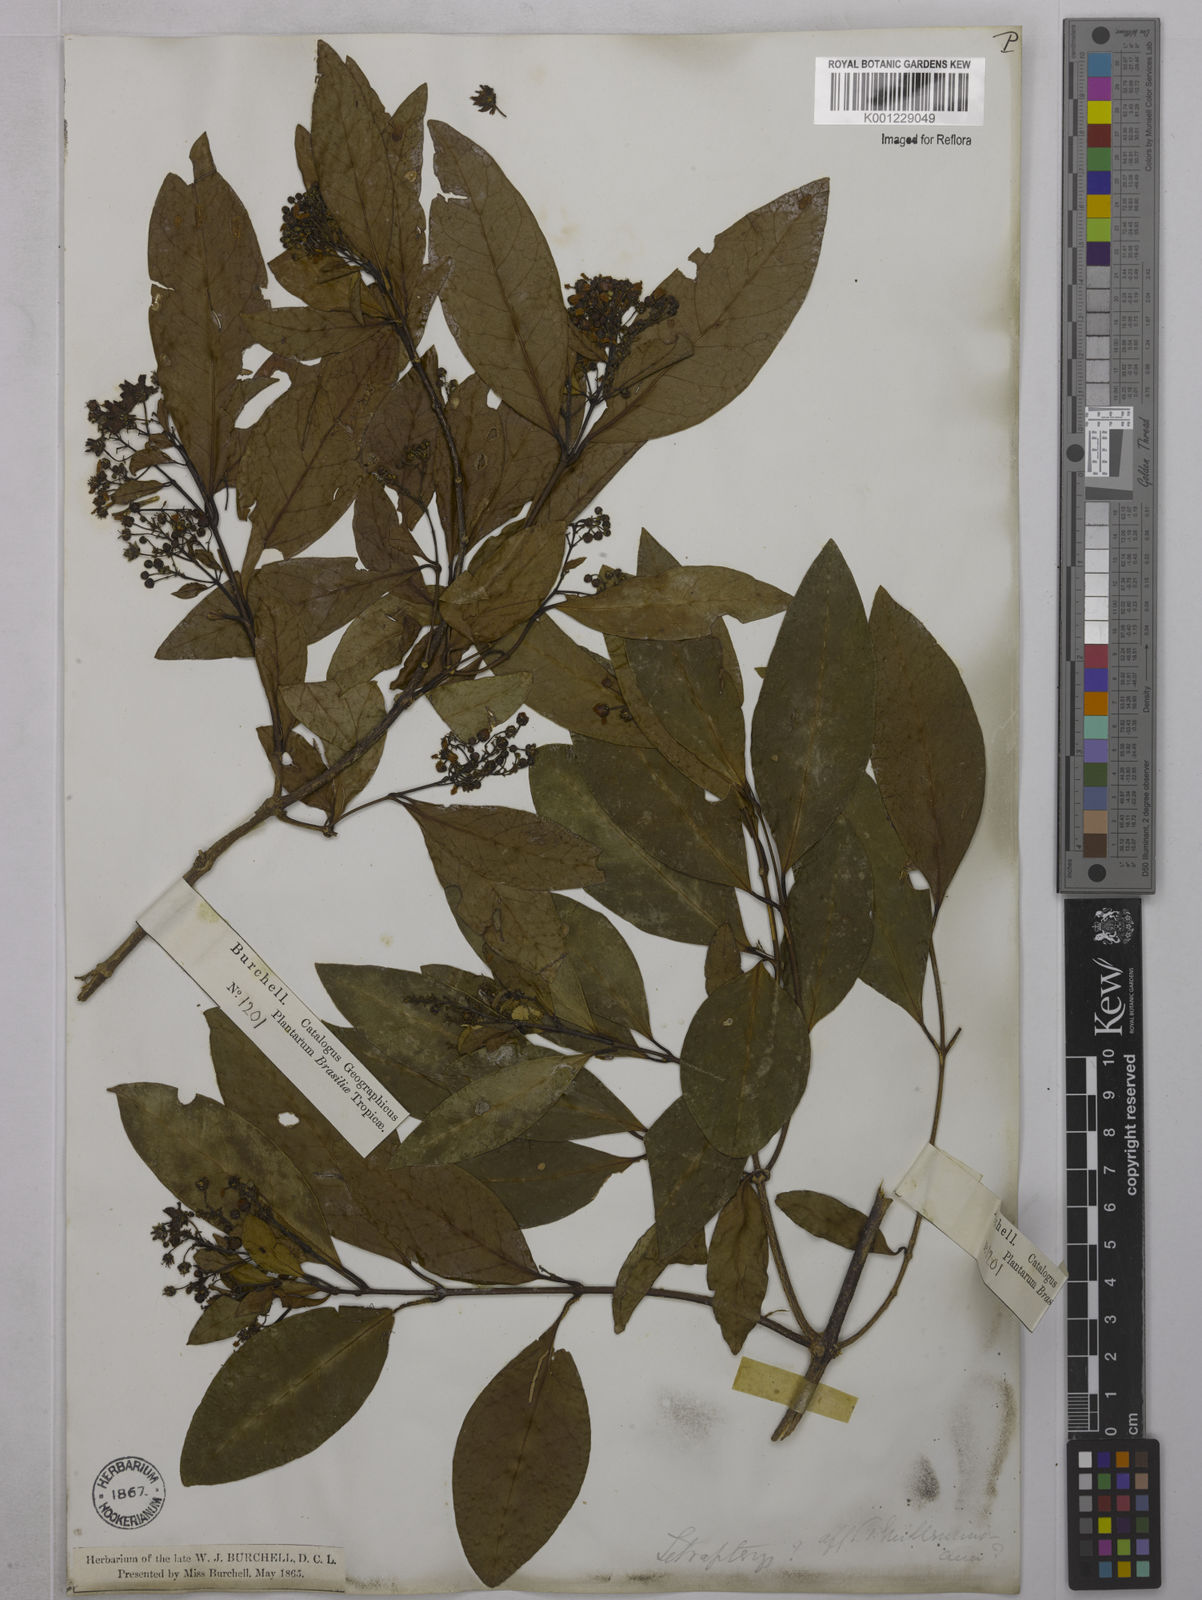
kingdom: Plantae
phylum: Tracheophyta
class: Magnoliopsida
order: Malpighiales
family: Malpighiaceae
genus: Niedenzuella
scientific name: Niedenzuella acutifolia
